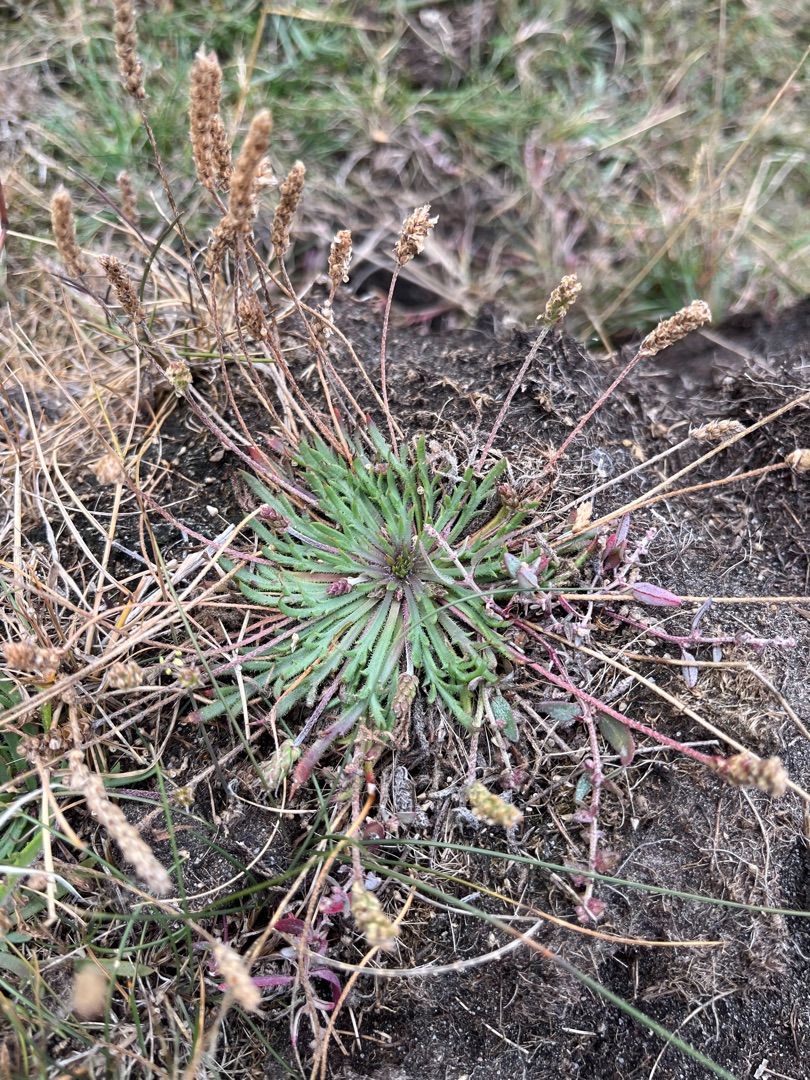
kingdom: Plantae
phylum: Tracheophyta
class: Magnoliopsida
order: Lamiales
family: Plantaginaceae
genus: Plantago
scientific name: Plantago coronopus
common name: Fliget vejbred
